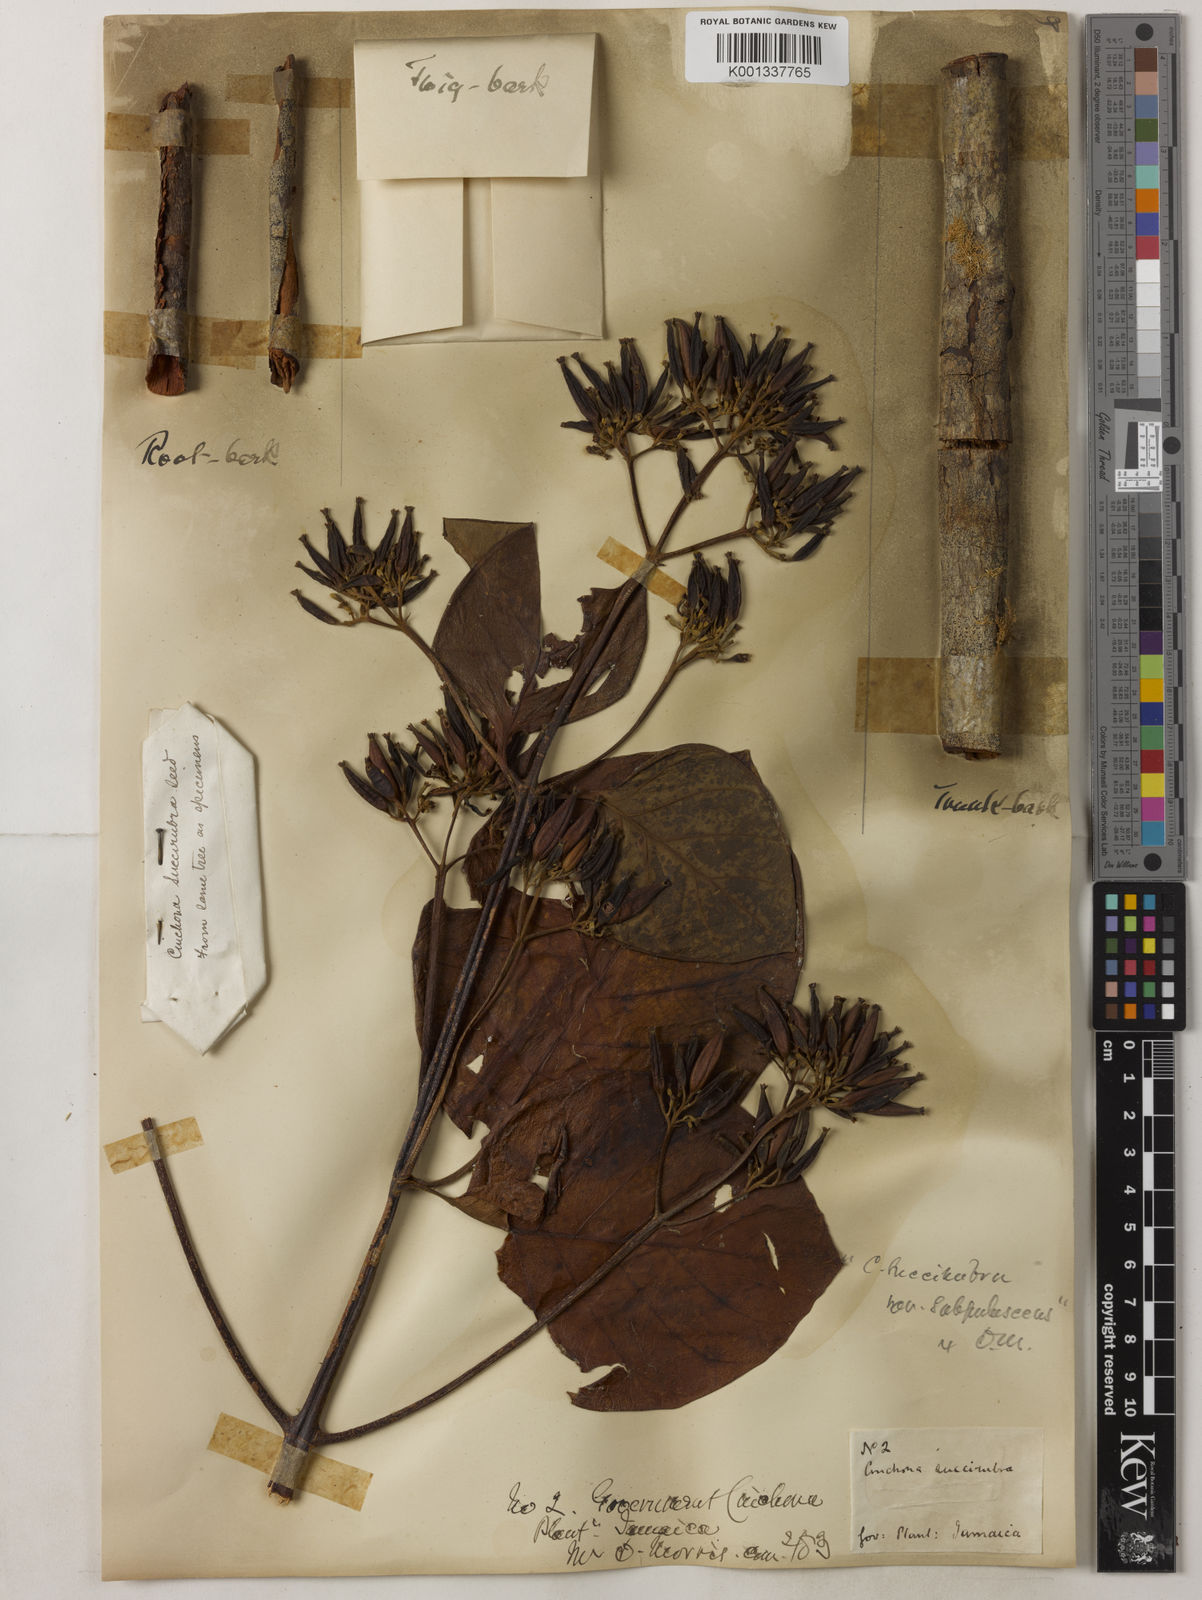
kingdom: Plantae
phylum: Tracheophyta
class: Magnoliopsida
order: Gentianales
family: Rubiaceae
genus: Cinchona
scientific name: Cinchona pubescens
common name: Quinine
